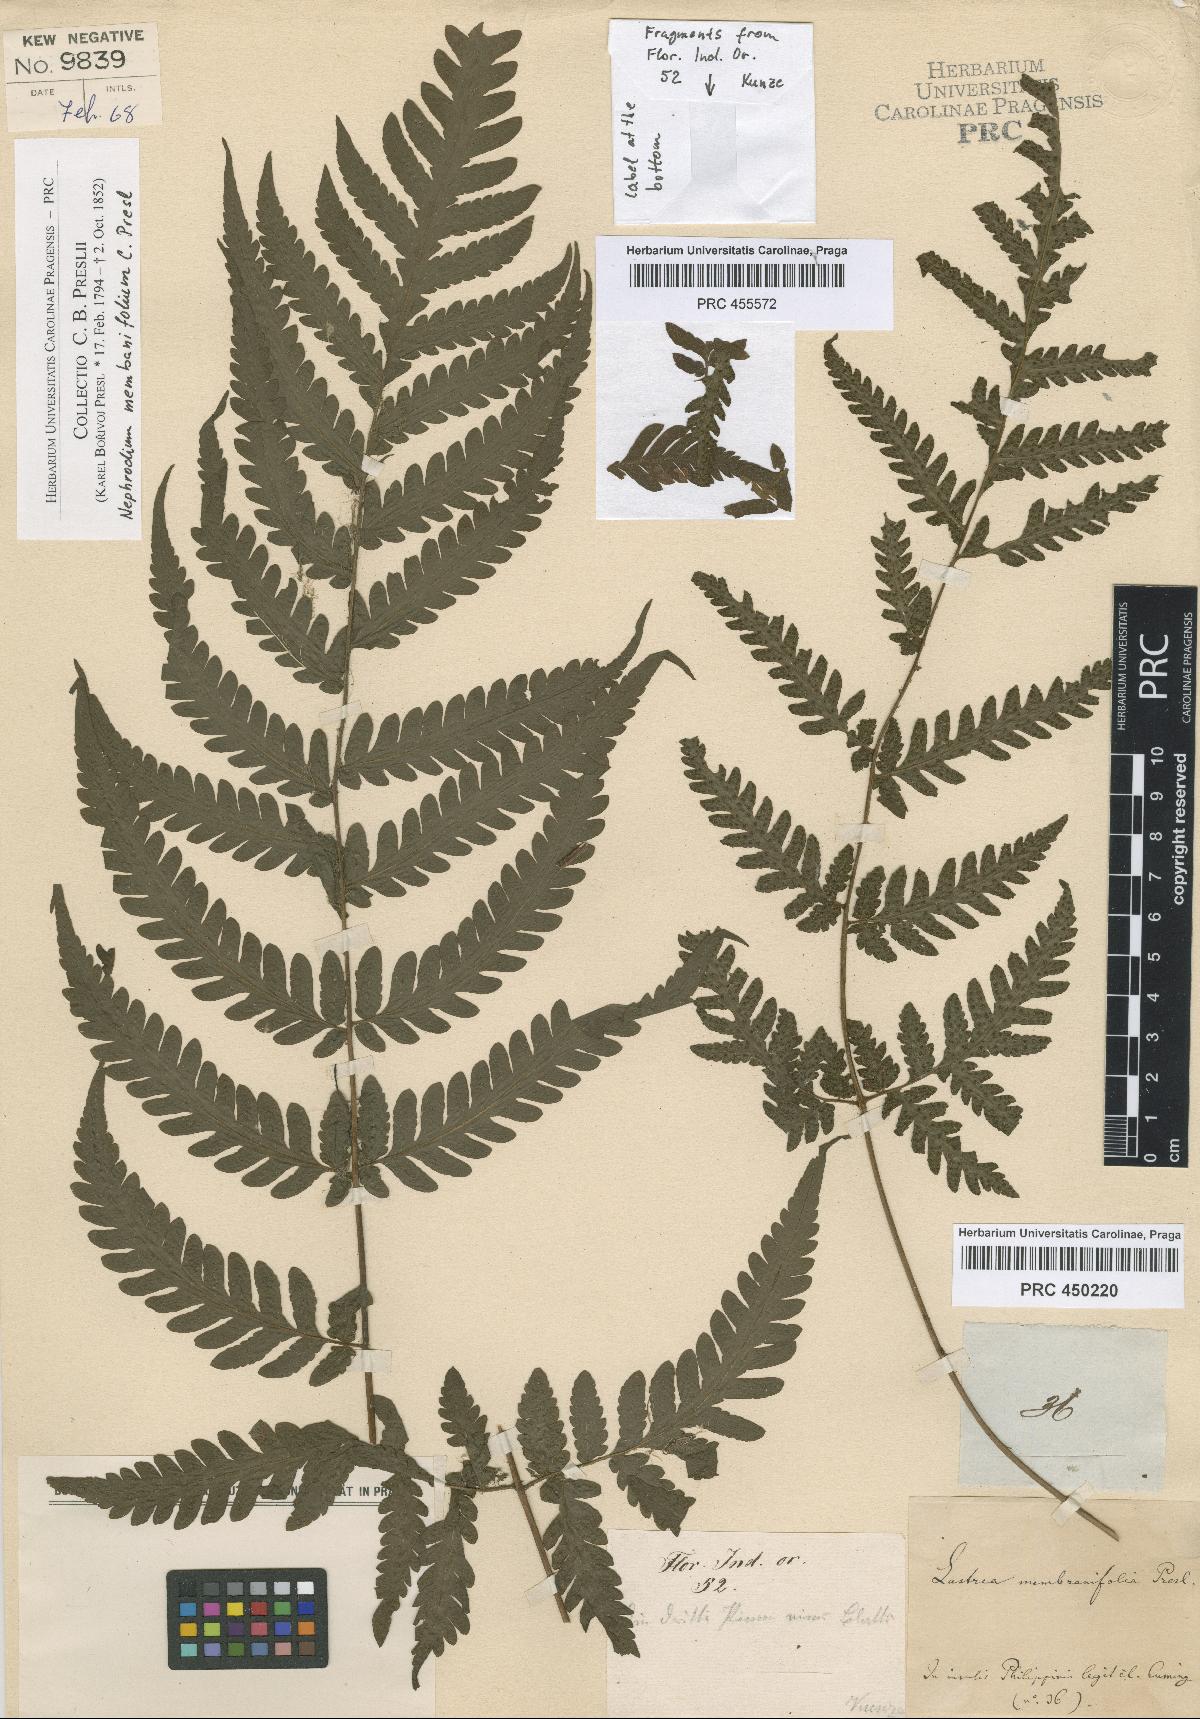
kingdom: Plantae
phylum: Tracheophyta
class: Polypodiopsida
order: Polypodiales
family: Tectariaceae
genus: Tectaria
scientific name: Tectaria dissecta
